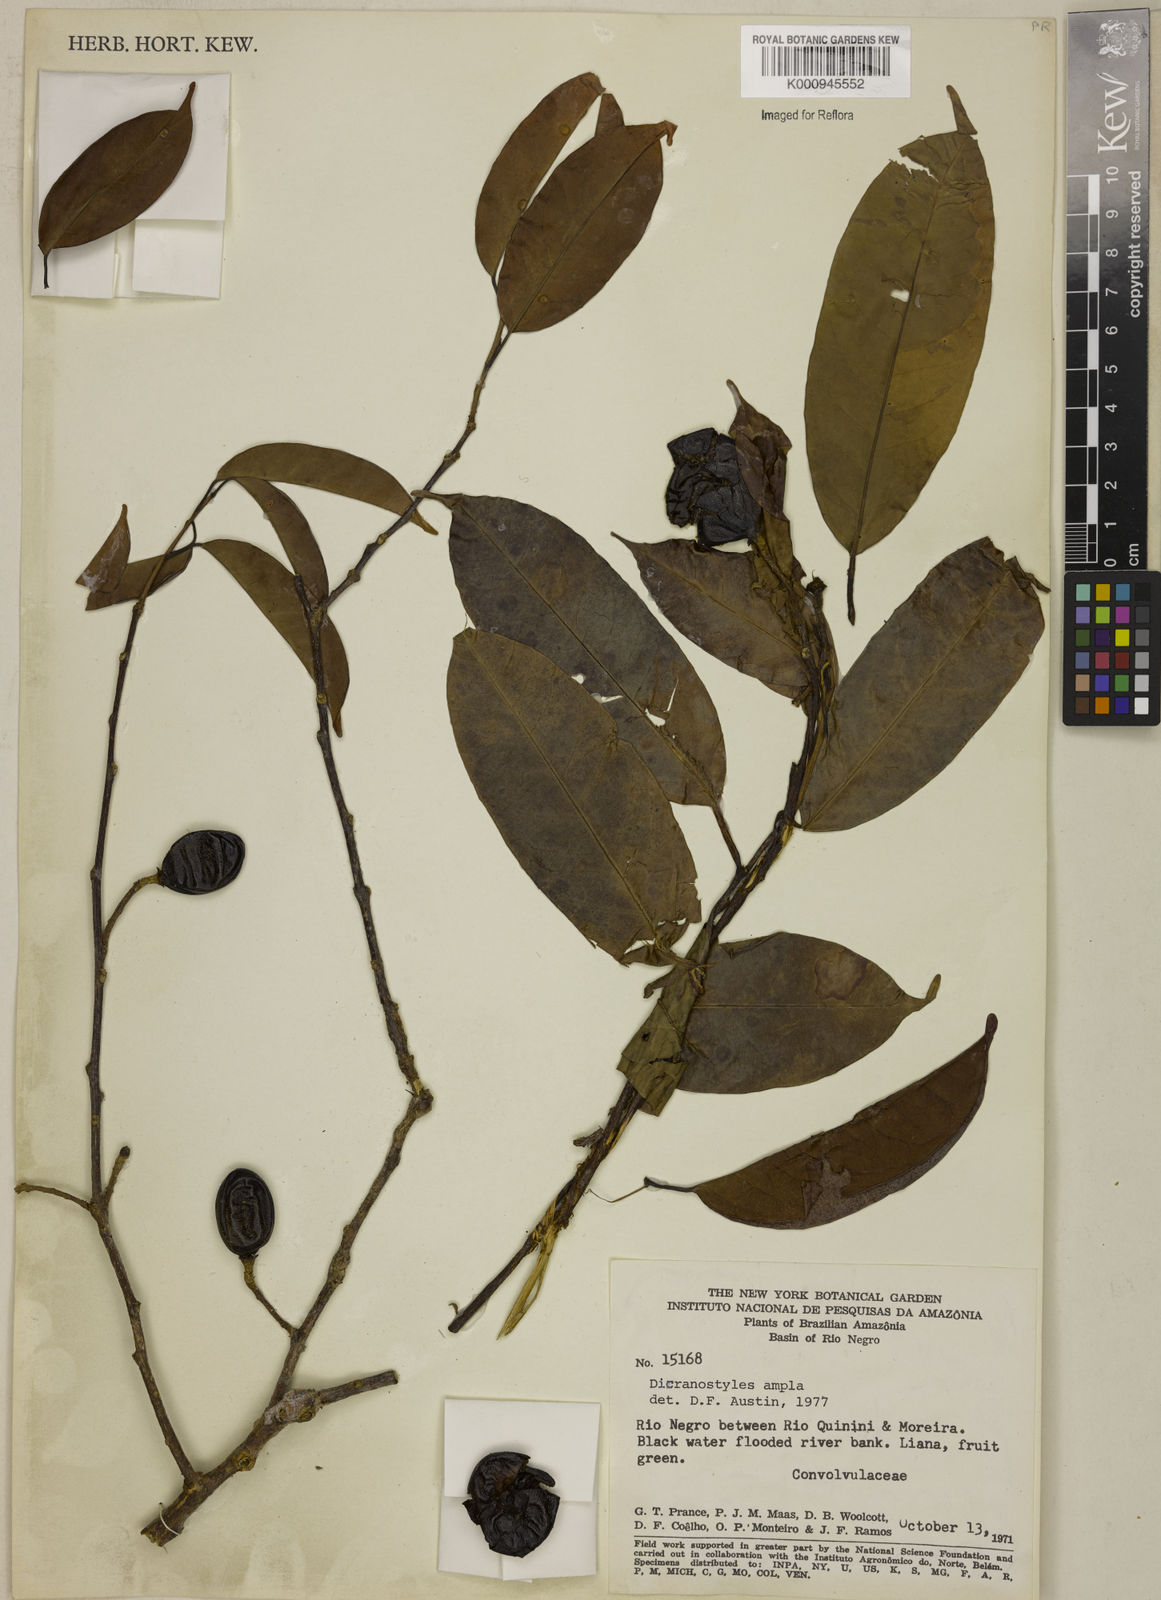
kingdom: Plantae
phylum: Tracheophyta
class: Magnoliopsida
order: Solanales
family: Convolvulaceae
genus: Dicranostyles
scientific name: Dicranostyles ampla
